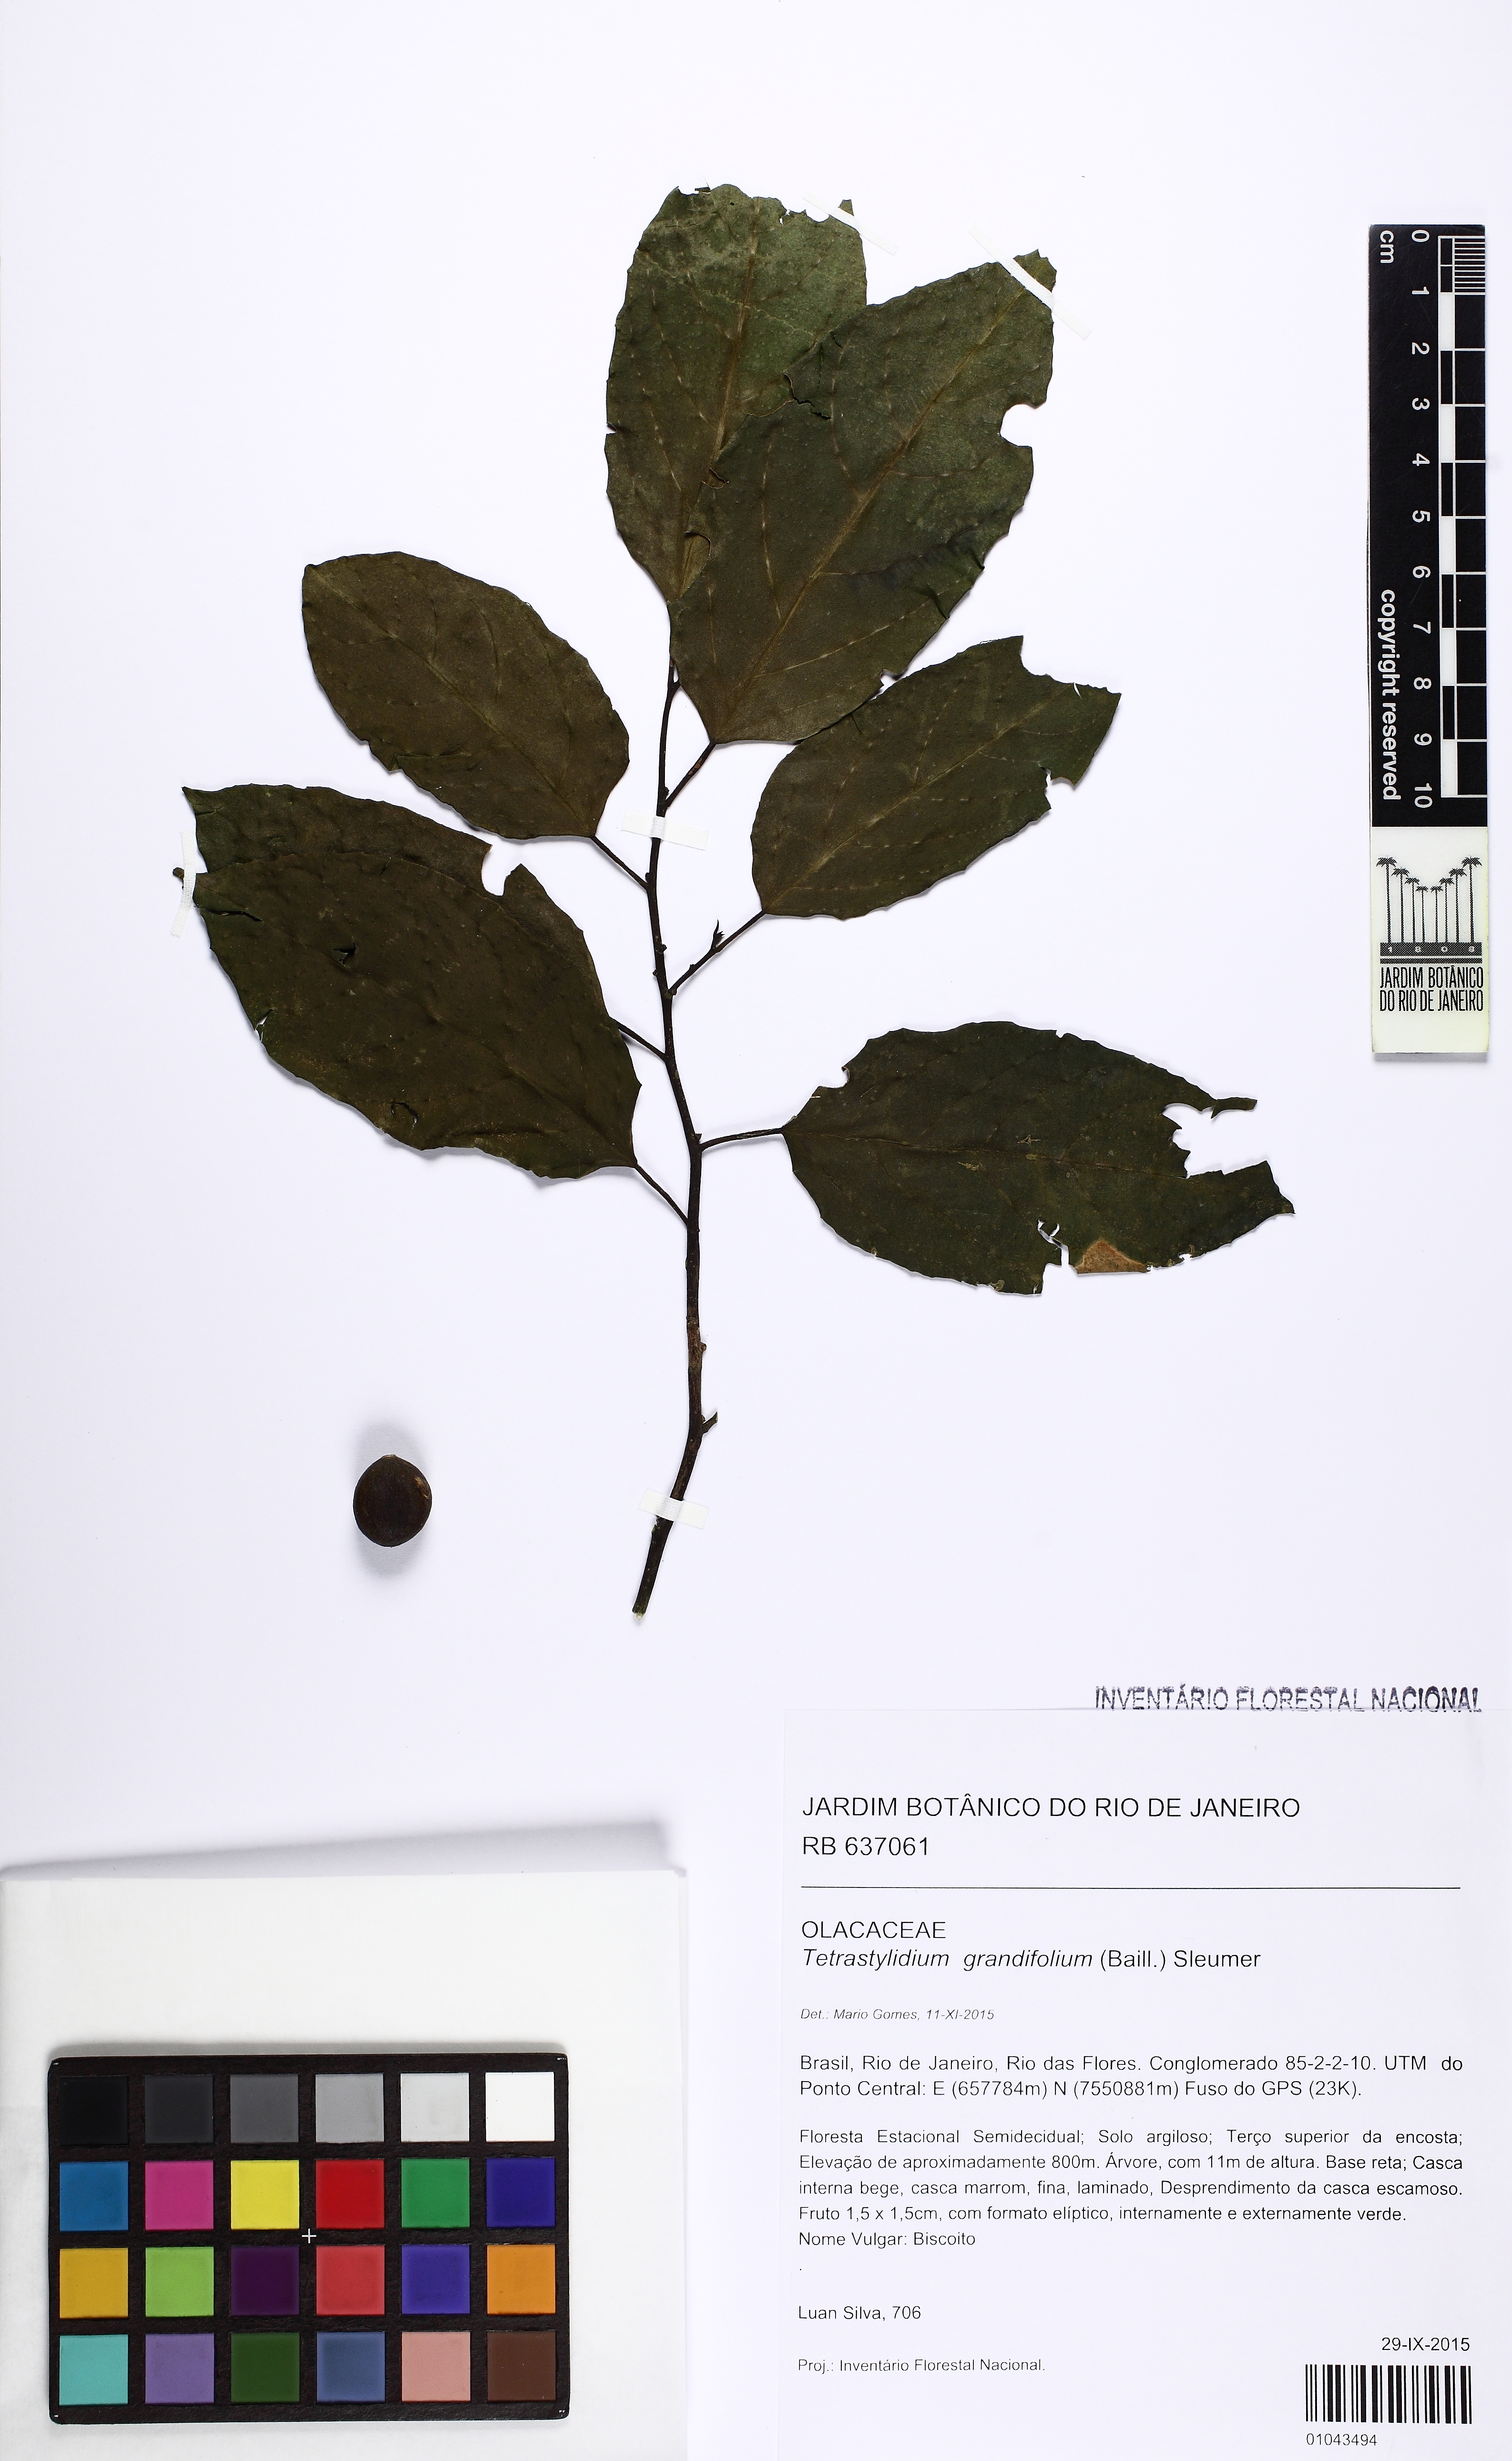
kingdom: Plantae
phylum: Tracheophyta
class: Magnoliopsida
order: Santalales
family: Strombosiaceae
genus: Tetrastylidium
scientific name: Tetrastylidium grandifolium
